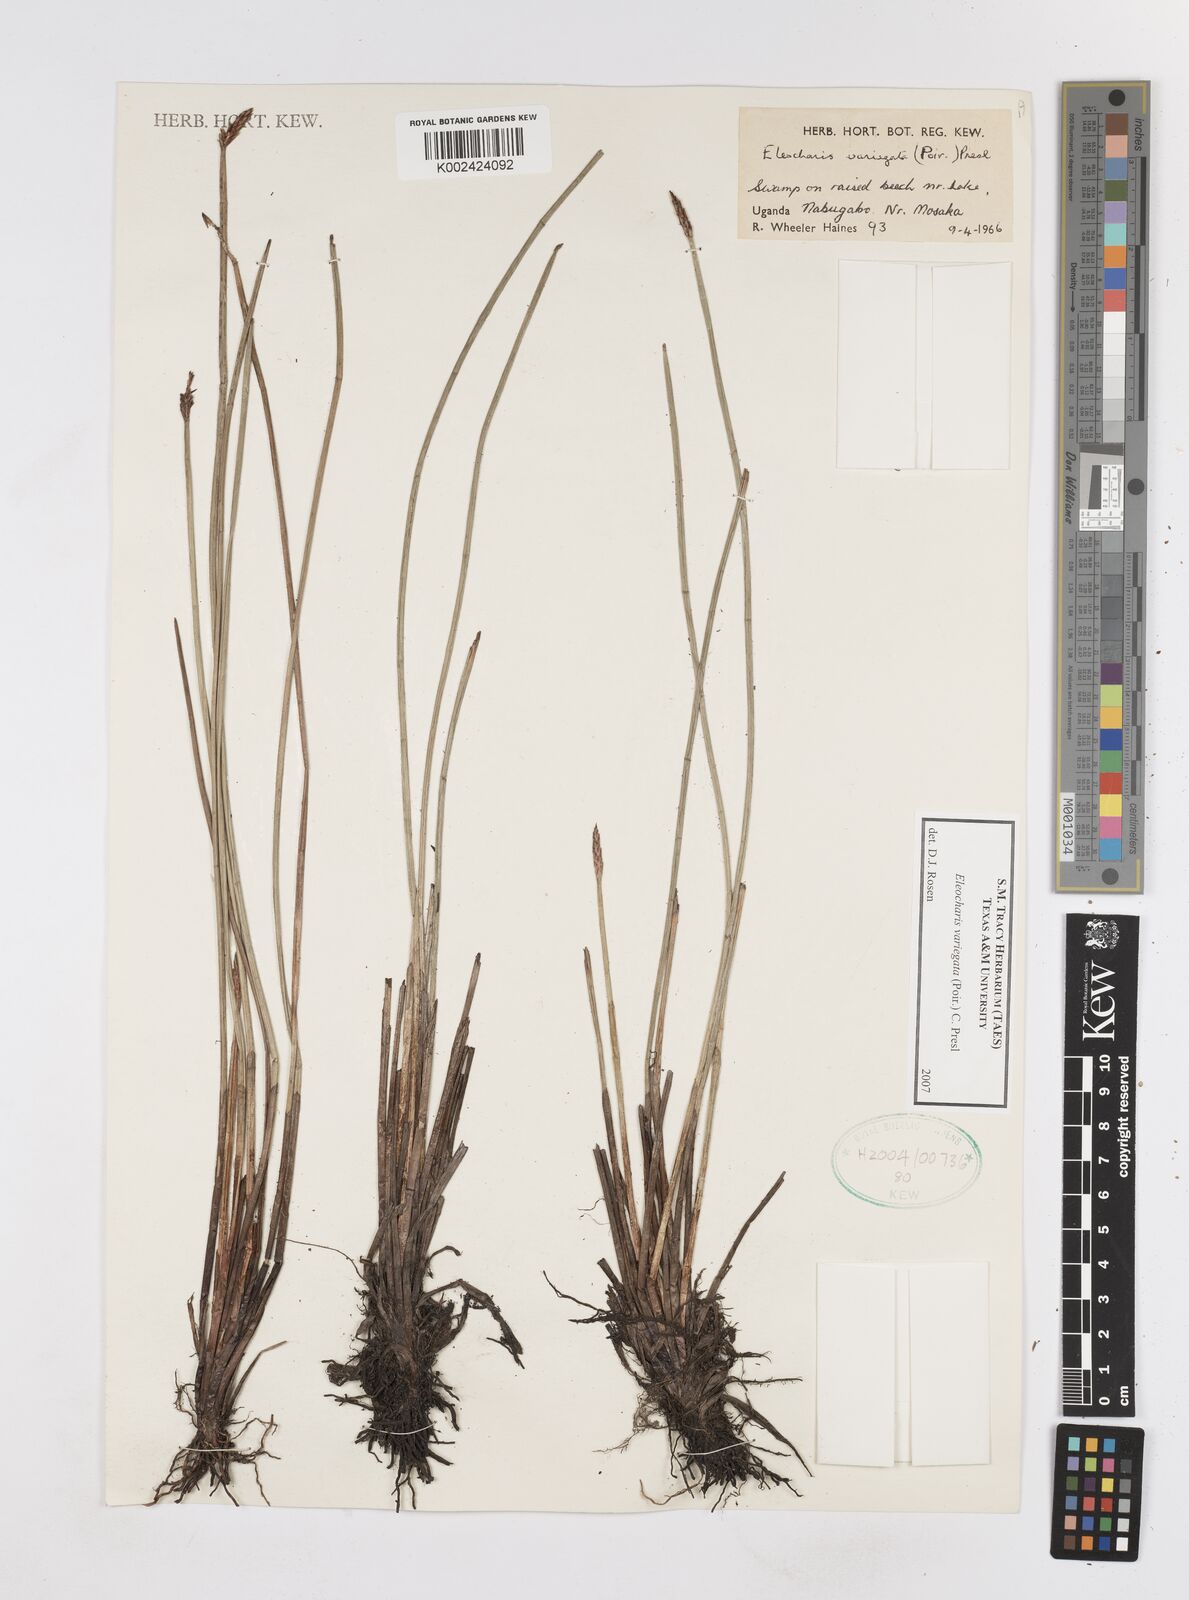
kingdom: Plantae
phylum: Tracheophyta
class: Liliopsida
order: Poales
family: Cyperaceae
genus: Eleocharis
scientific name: Eleocharis variegata
